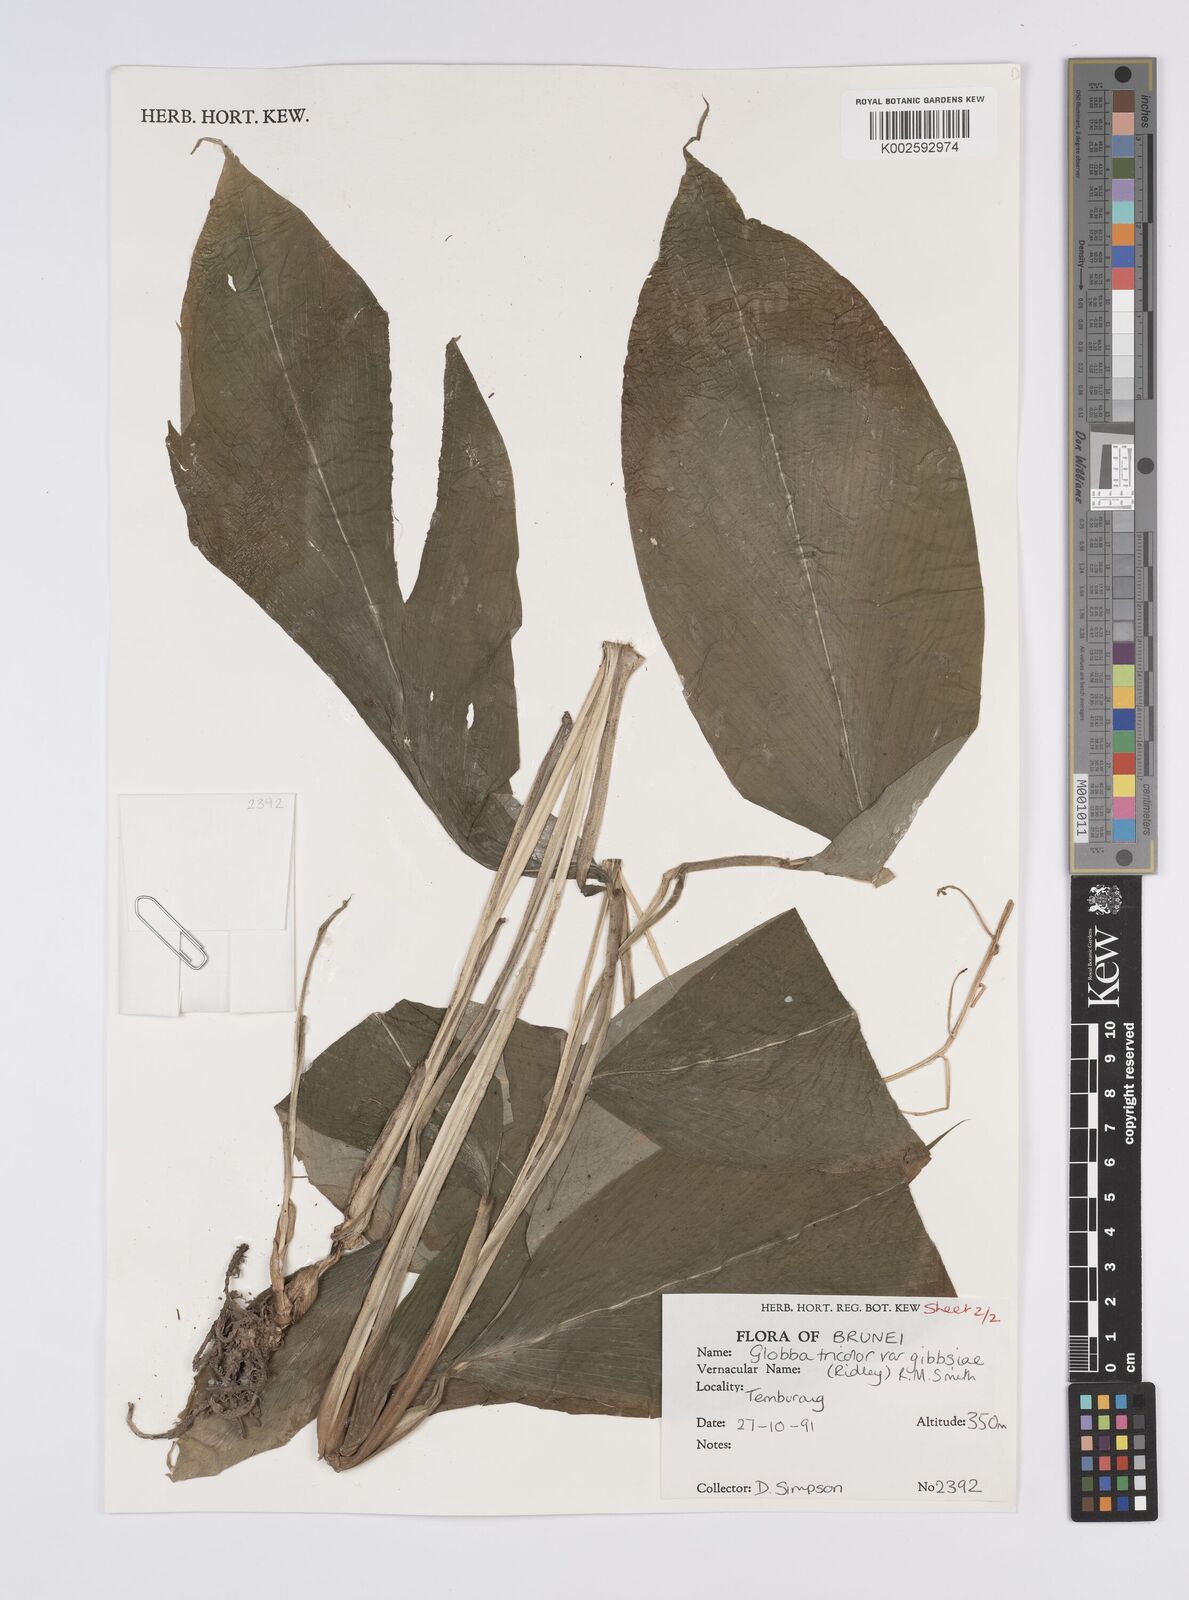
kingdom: Plantae
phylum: Tracheophyta
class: Liliopsida
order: Zingiberales
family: Zingiberaceae
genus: Globba
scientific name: Globba tricolor
